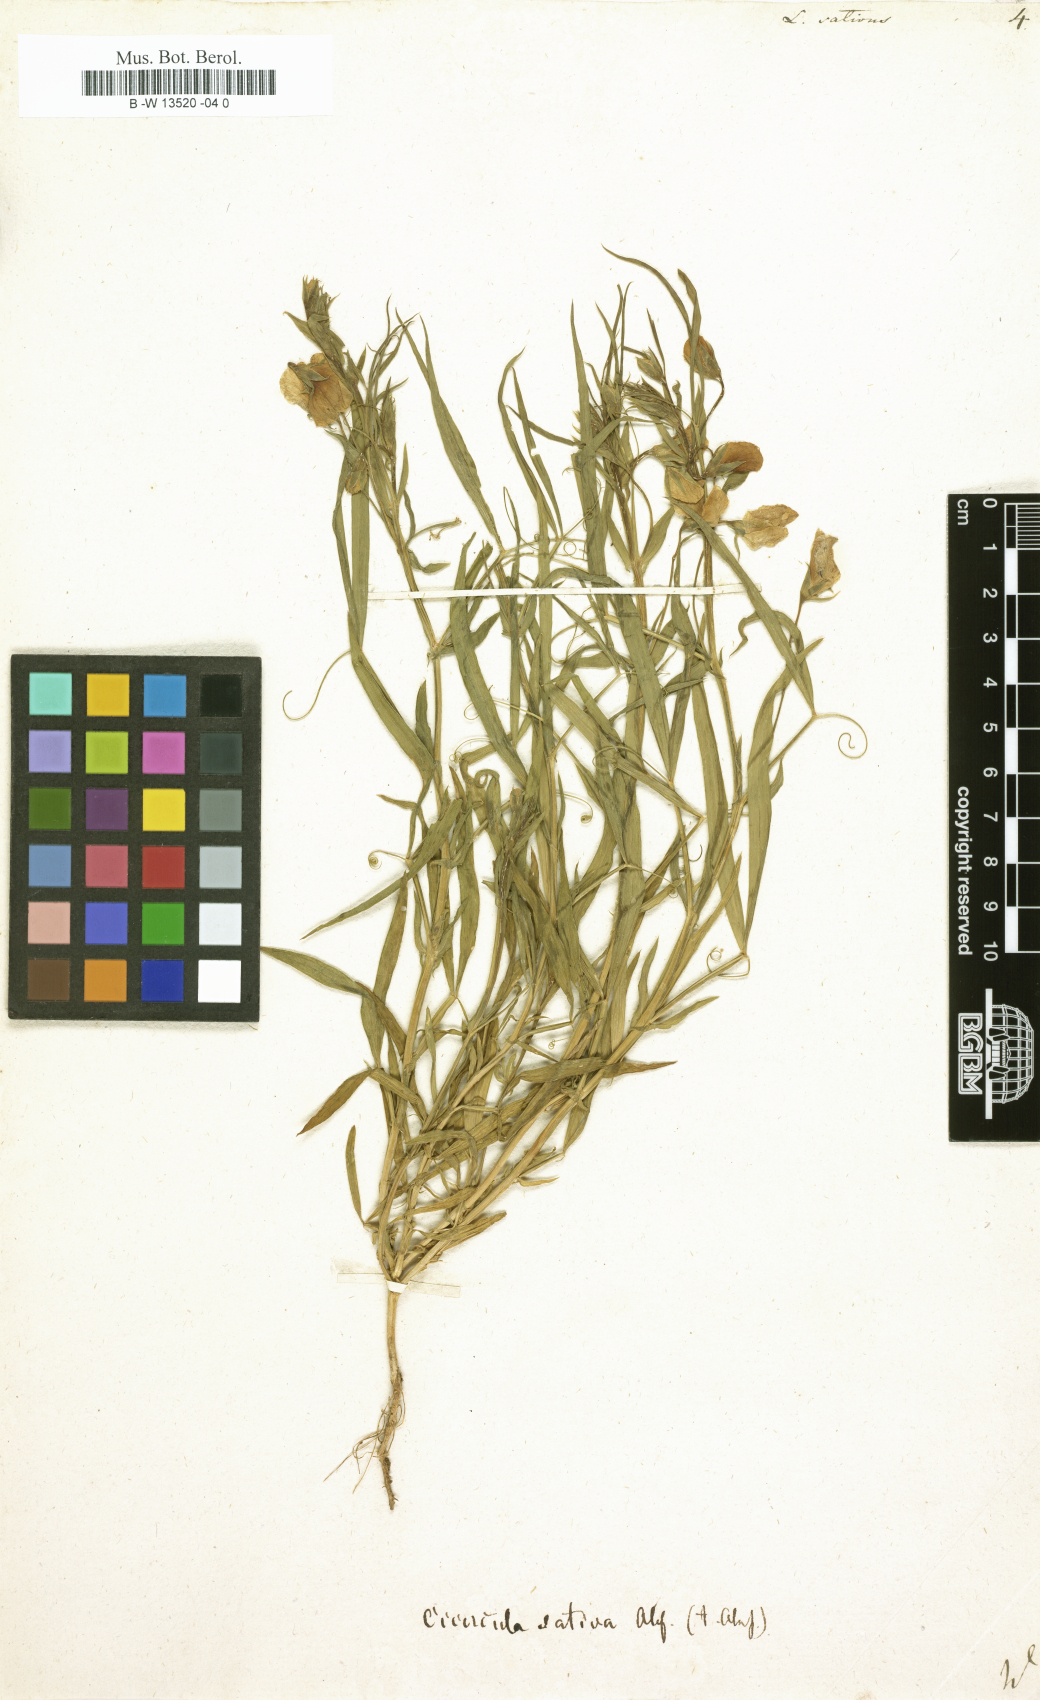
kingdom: Plantae
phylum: Tracheophyta
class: Magnoliopsida
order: Fabales
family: Fabaceae
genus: Lathyrus
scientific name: Lathyrus sativus
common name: Indian pea
